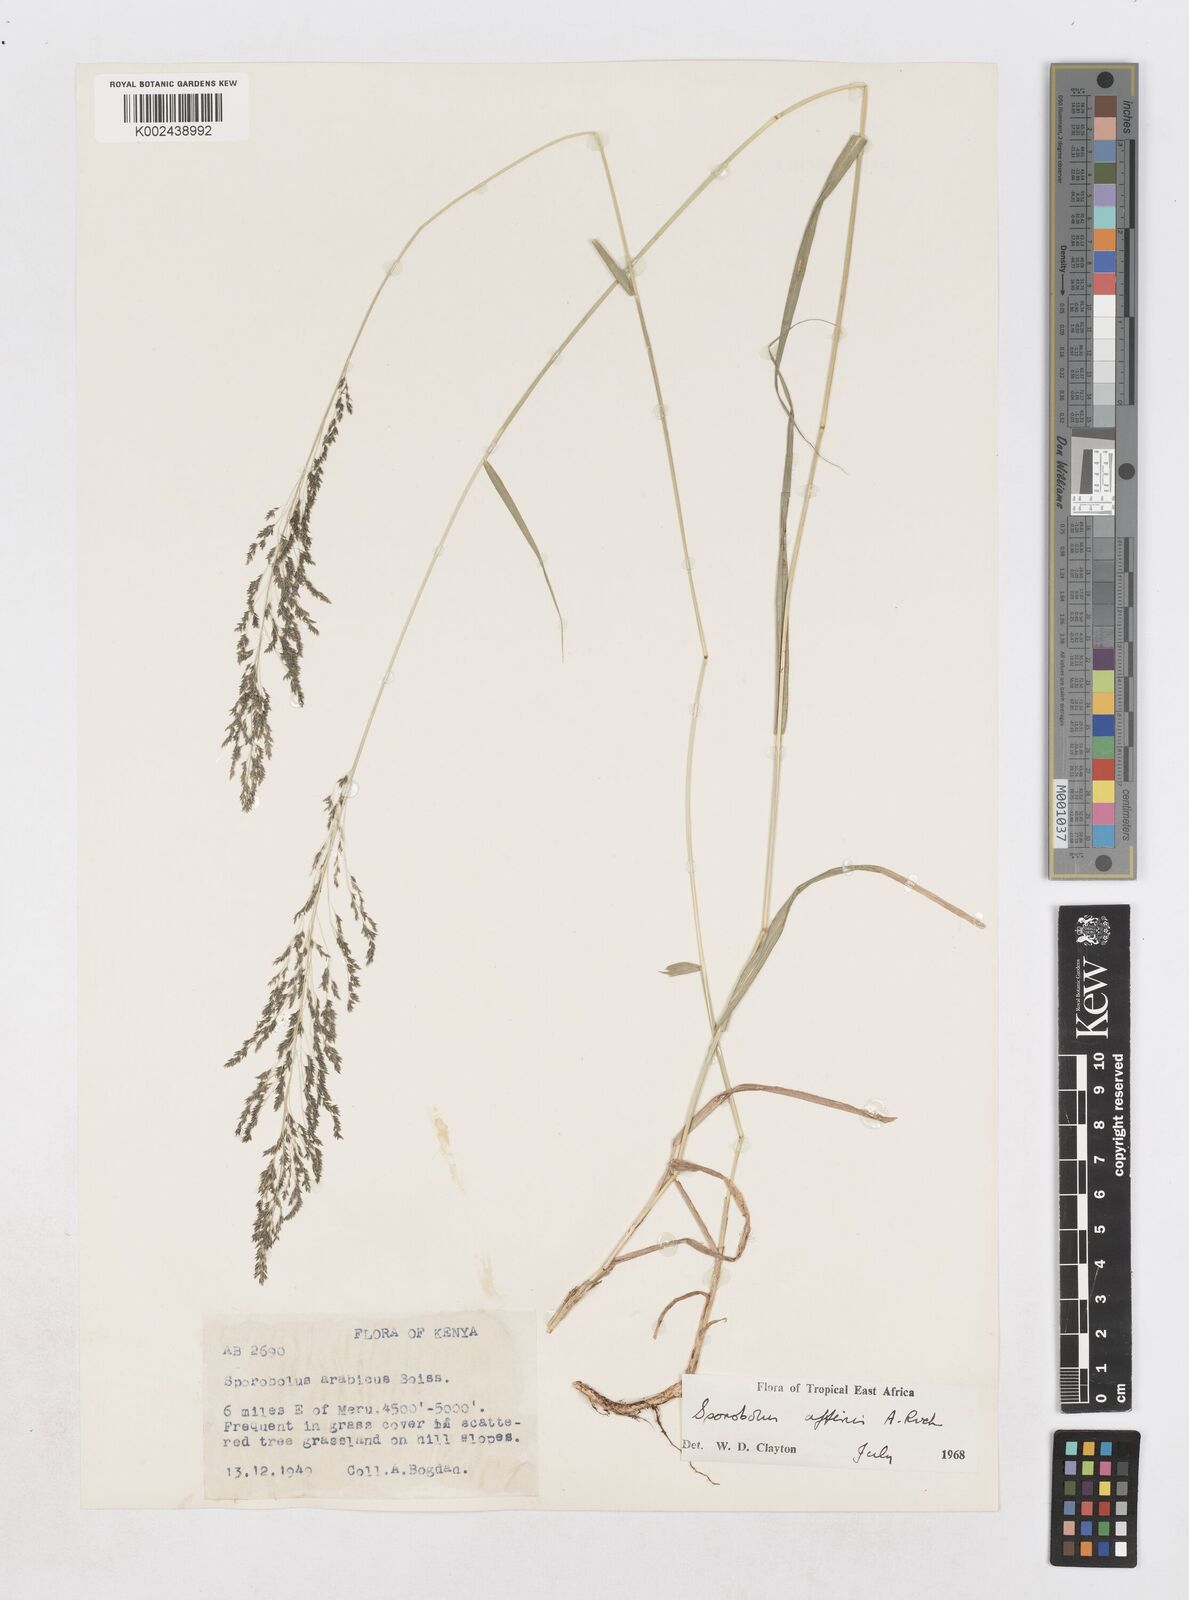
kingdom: Plantae
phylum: Tracheophyta
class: Liliopsida
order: Poales
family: Poaceae
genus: Sporobolus
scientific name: Sporobolus confinis
